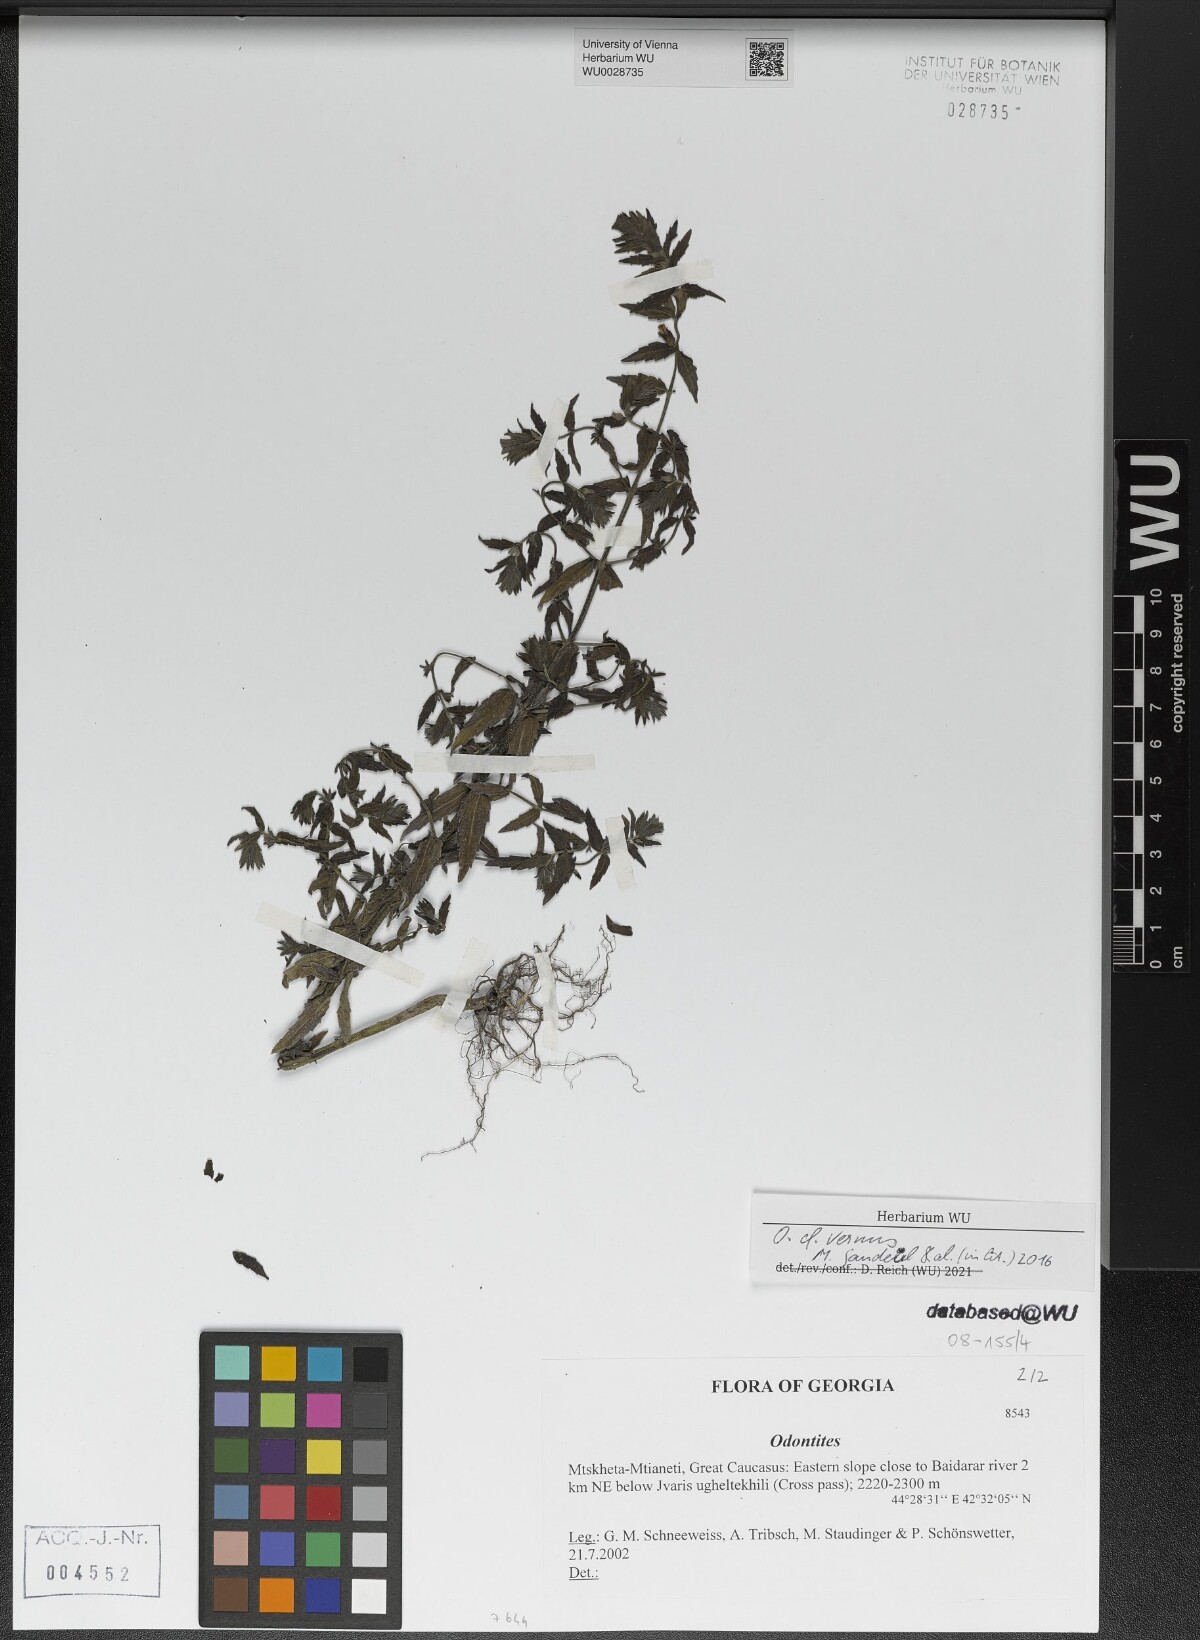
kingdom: Plantae
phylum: Tracheophyta
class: Magnoliopsida
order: Lamiales
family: Orobanchaceae
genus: Odontites
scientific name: Odontites vernus
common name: Red bartsia
